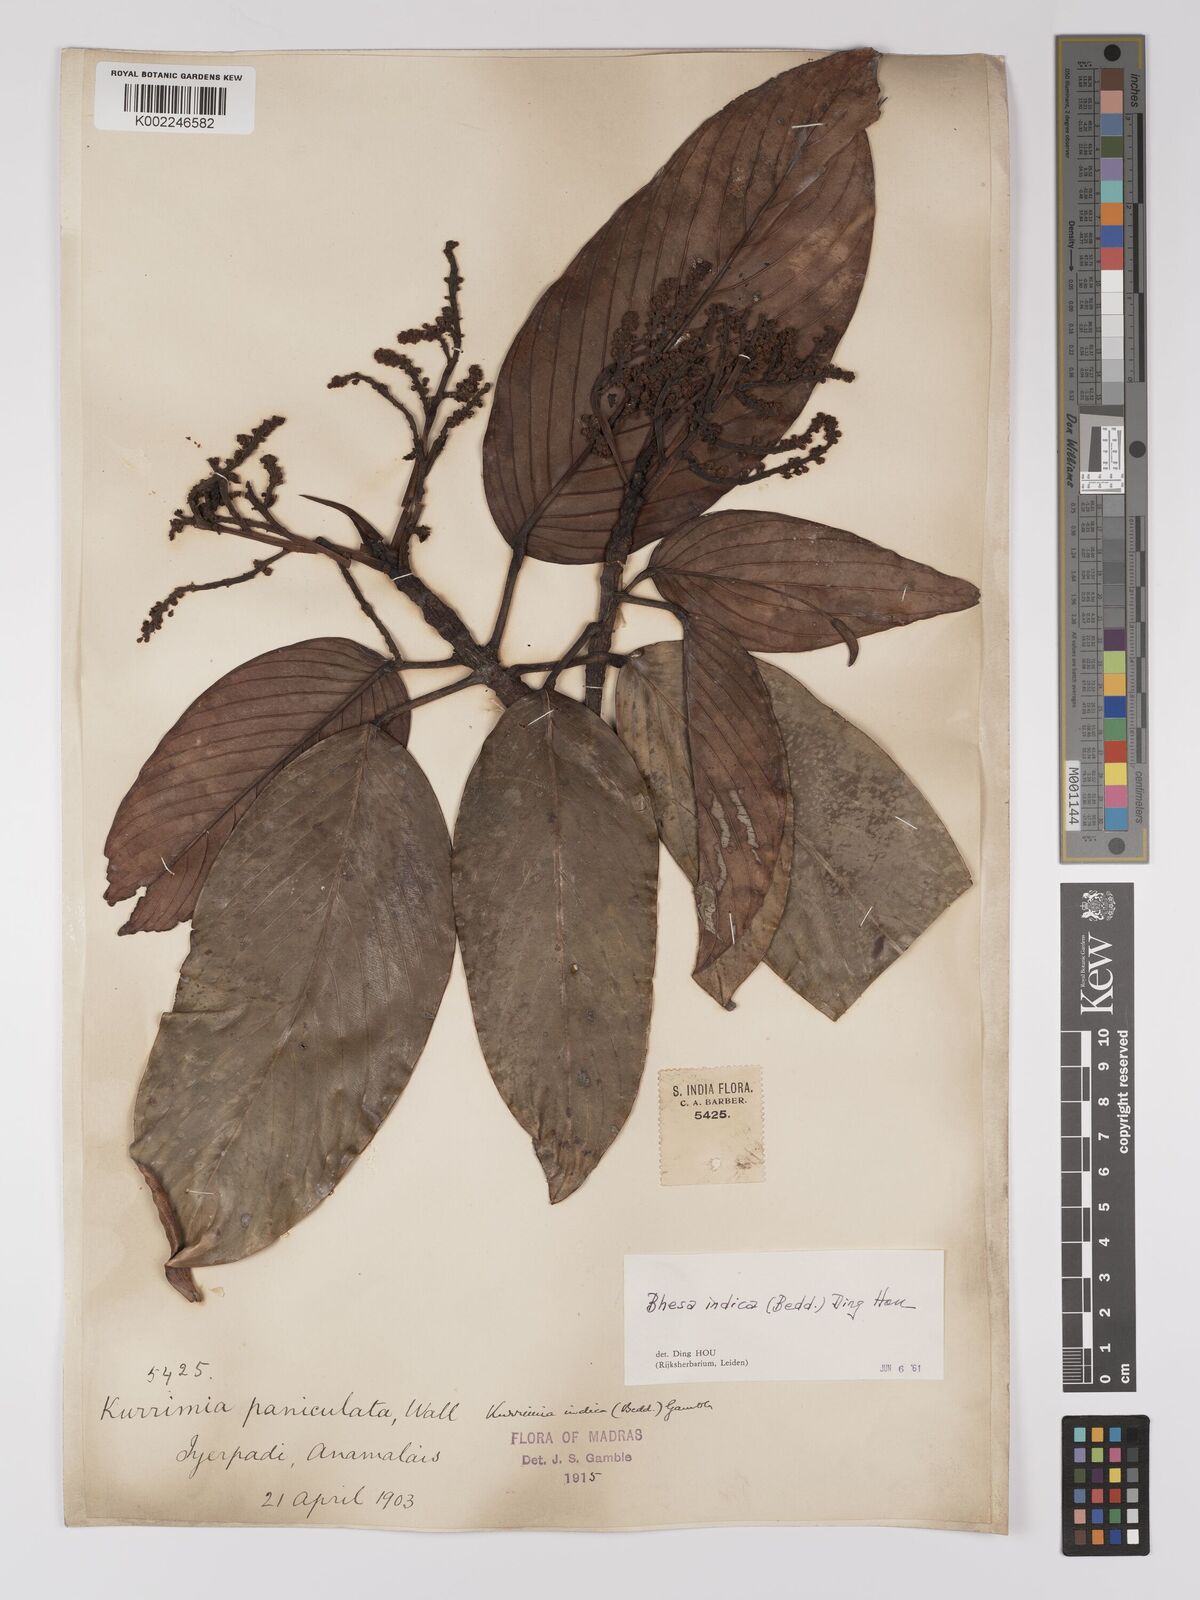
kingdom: Plantae
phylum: Tracheophyta
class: Magnoliopsida
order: Malpighiales
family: Centroplacaceae
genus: Bhesa
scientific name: Bhesa indica
